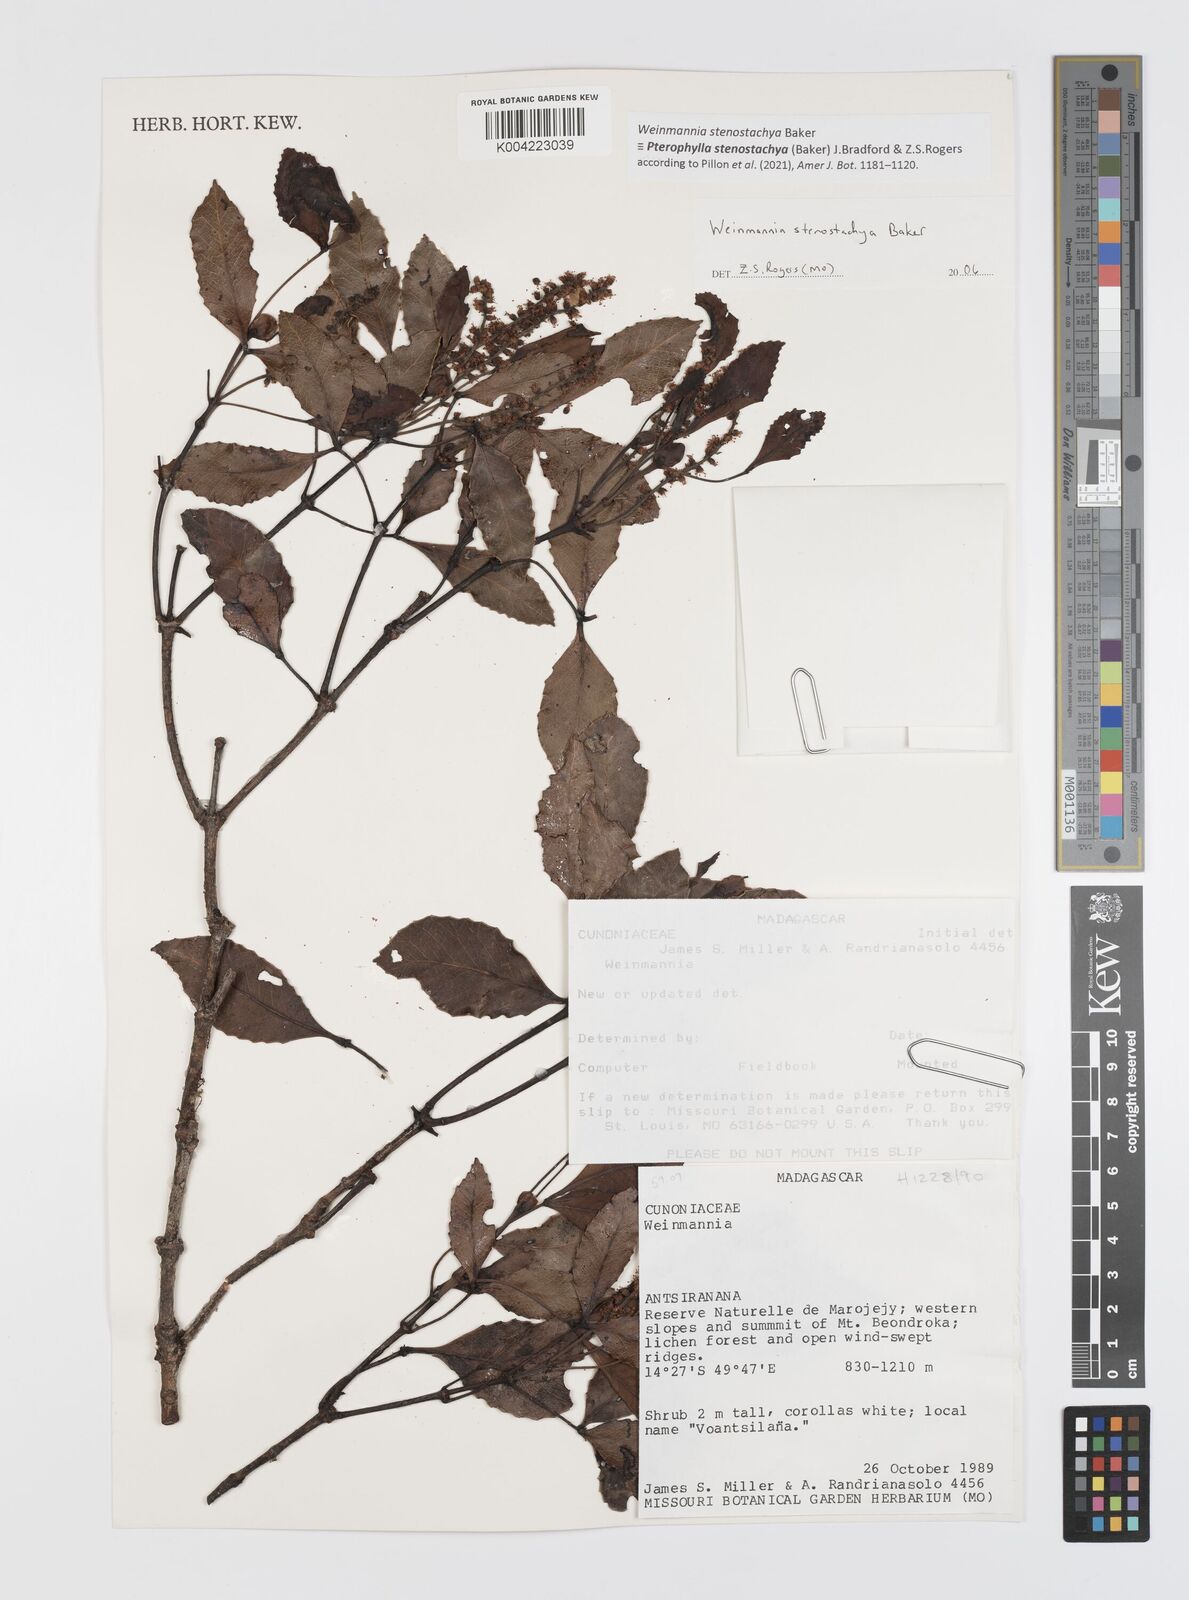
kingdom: Plantae
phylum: Tracheophyta
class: Magnoliopsida
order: Oxalidales
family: Cunoniaceae
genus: Pterophylla
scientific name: Pterophylla stenostachya
